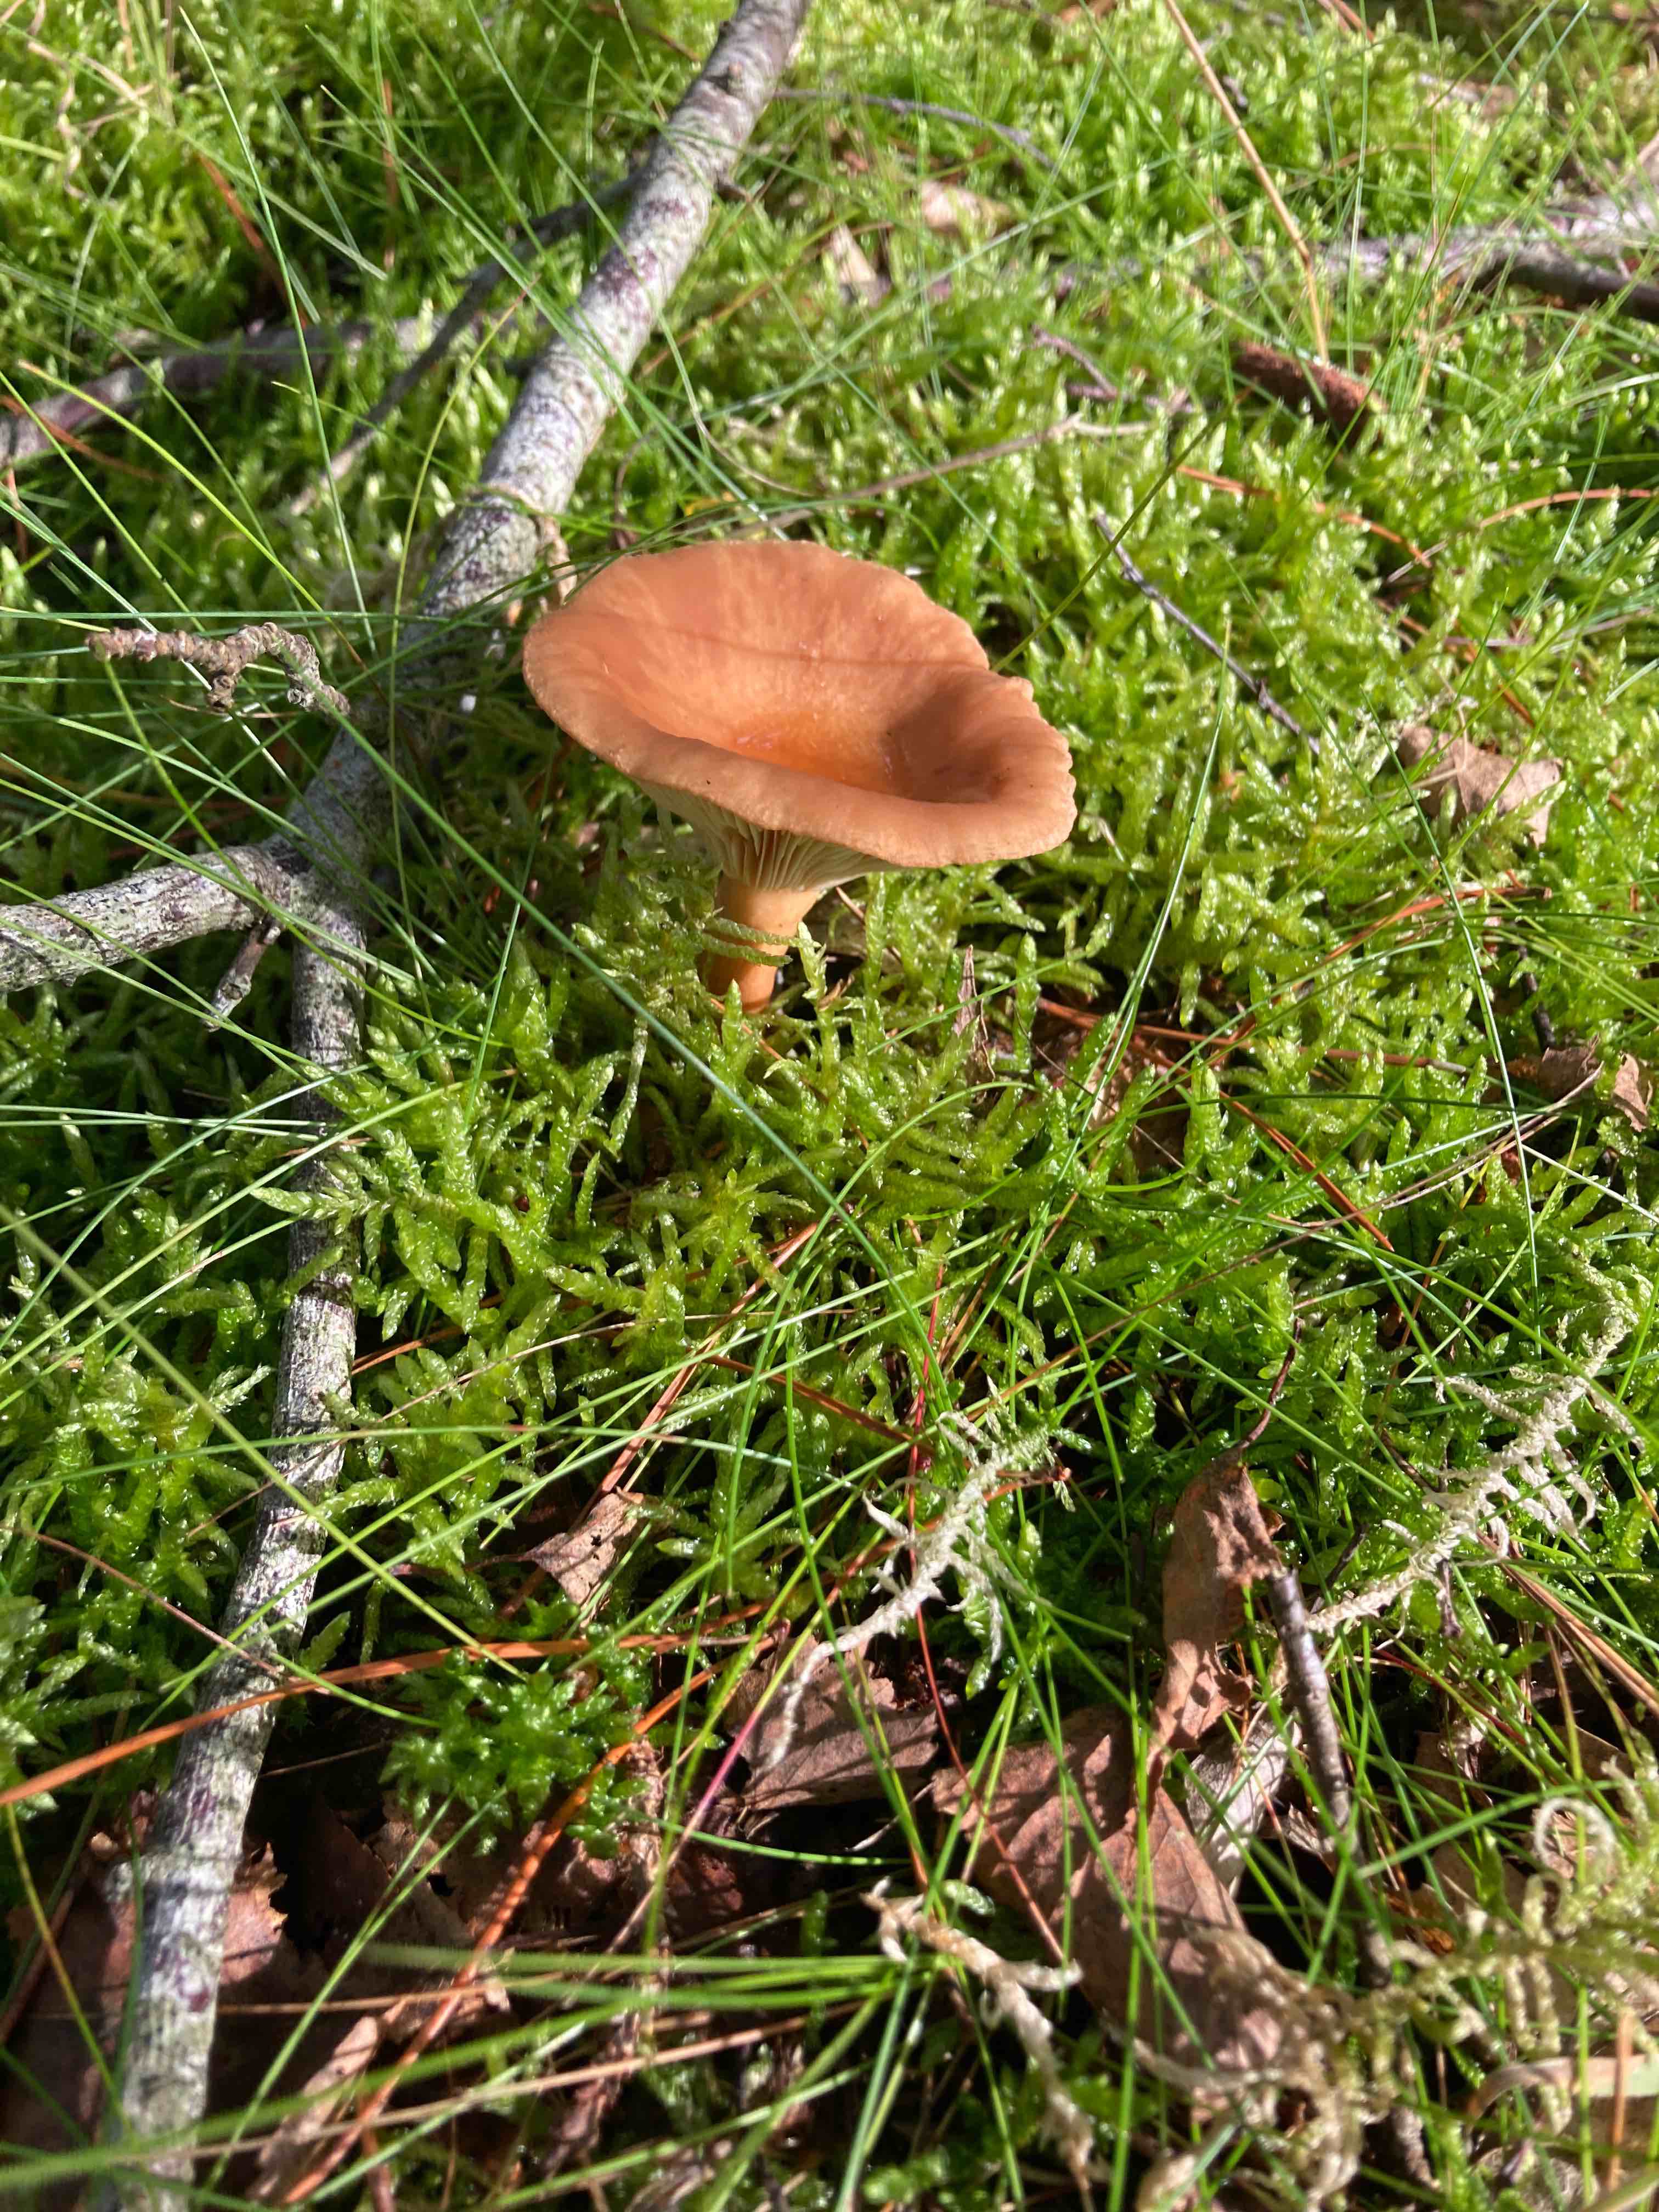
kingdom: Fungi
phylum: Basidiomycota
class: Agaricomycetes
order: Russulales
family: Russulaceae
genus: Lactarius
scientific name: Lactarius
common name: mælkehat
